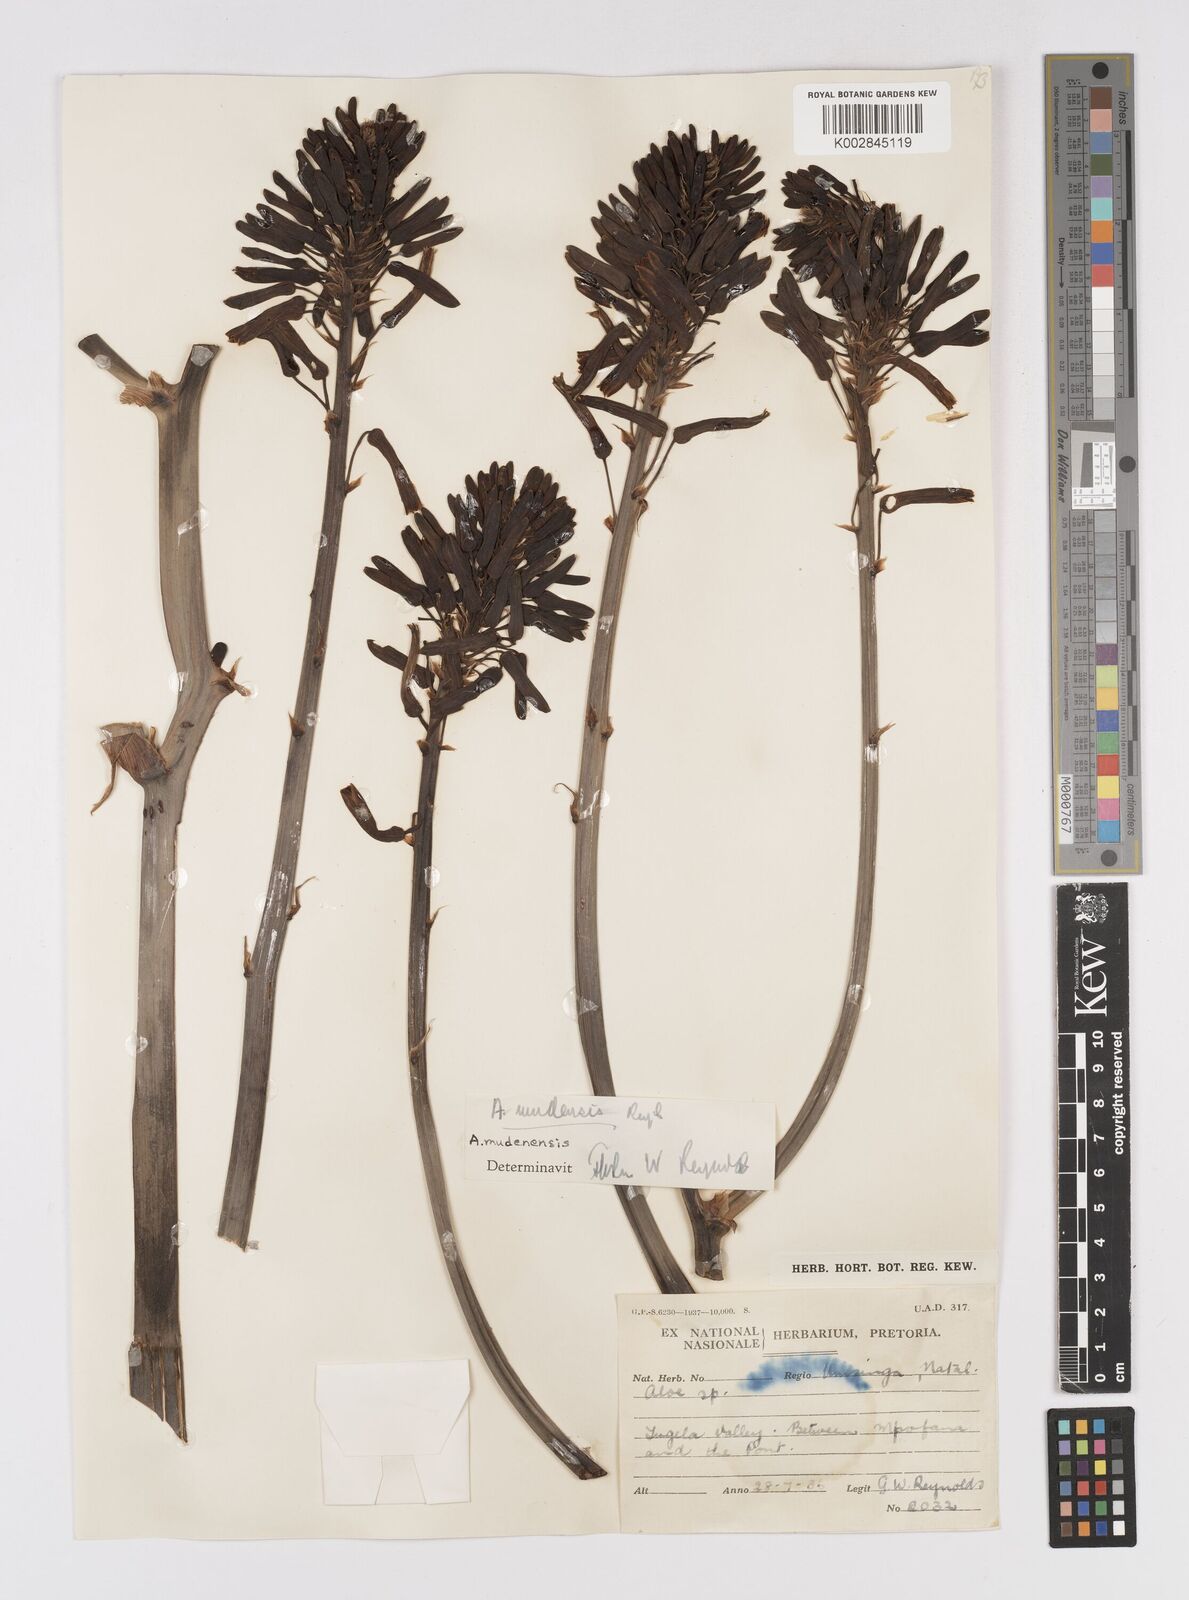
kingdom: Plantae
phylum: Tracheophyta
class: Liliopsida
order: Asparagales
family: Asphodelaceae
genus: Aloe
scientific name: Aloe mudenensis
